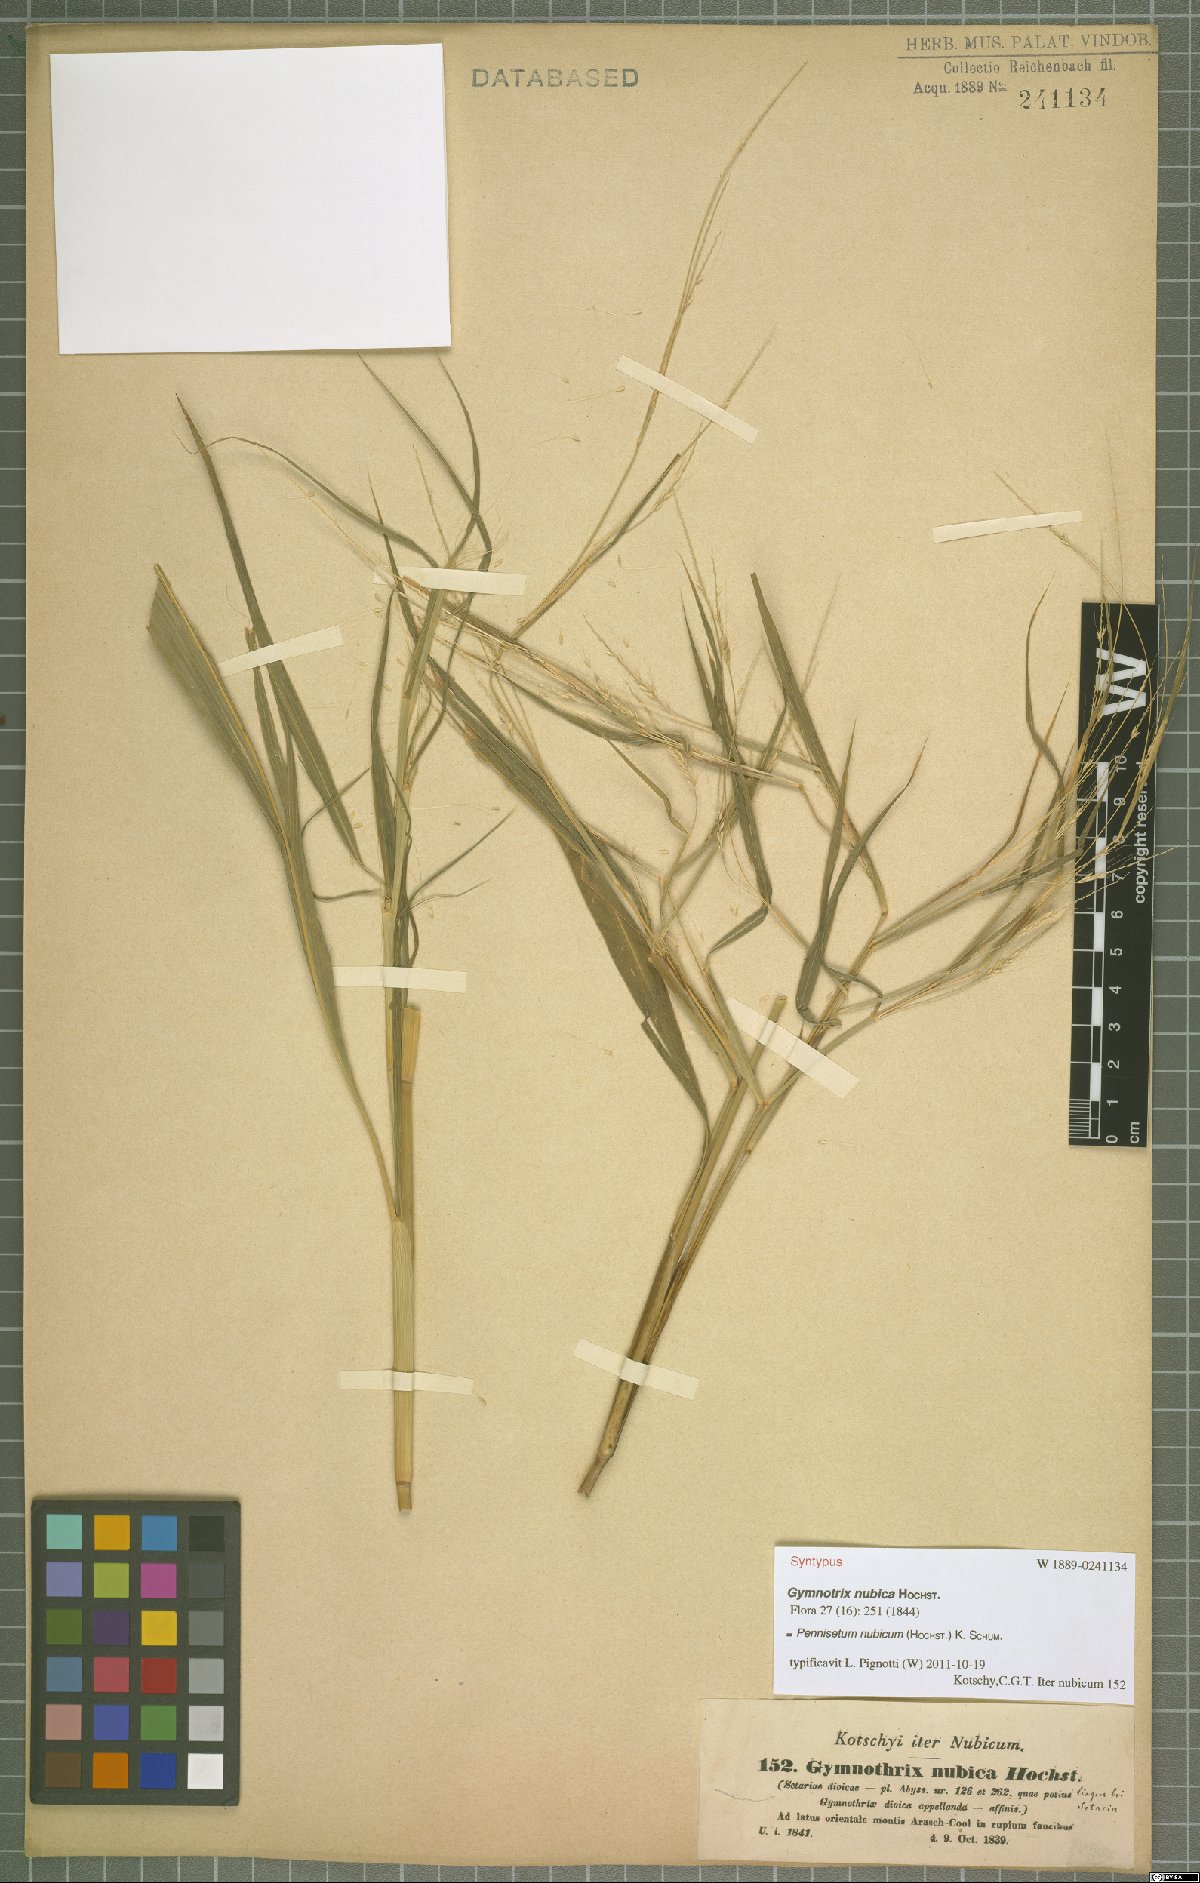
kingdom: Plantae
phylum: Tracheophyta
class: Liliopsida
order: Poales
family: Poaceae
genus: Cenchrus
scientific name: Cenchrus nubicus
